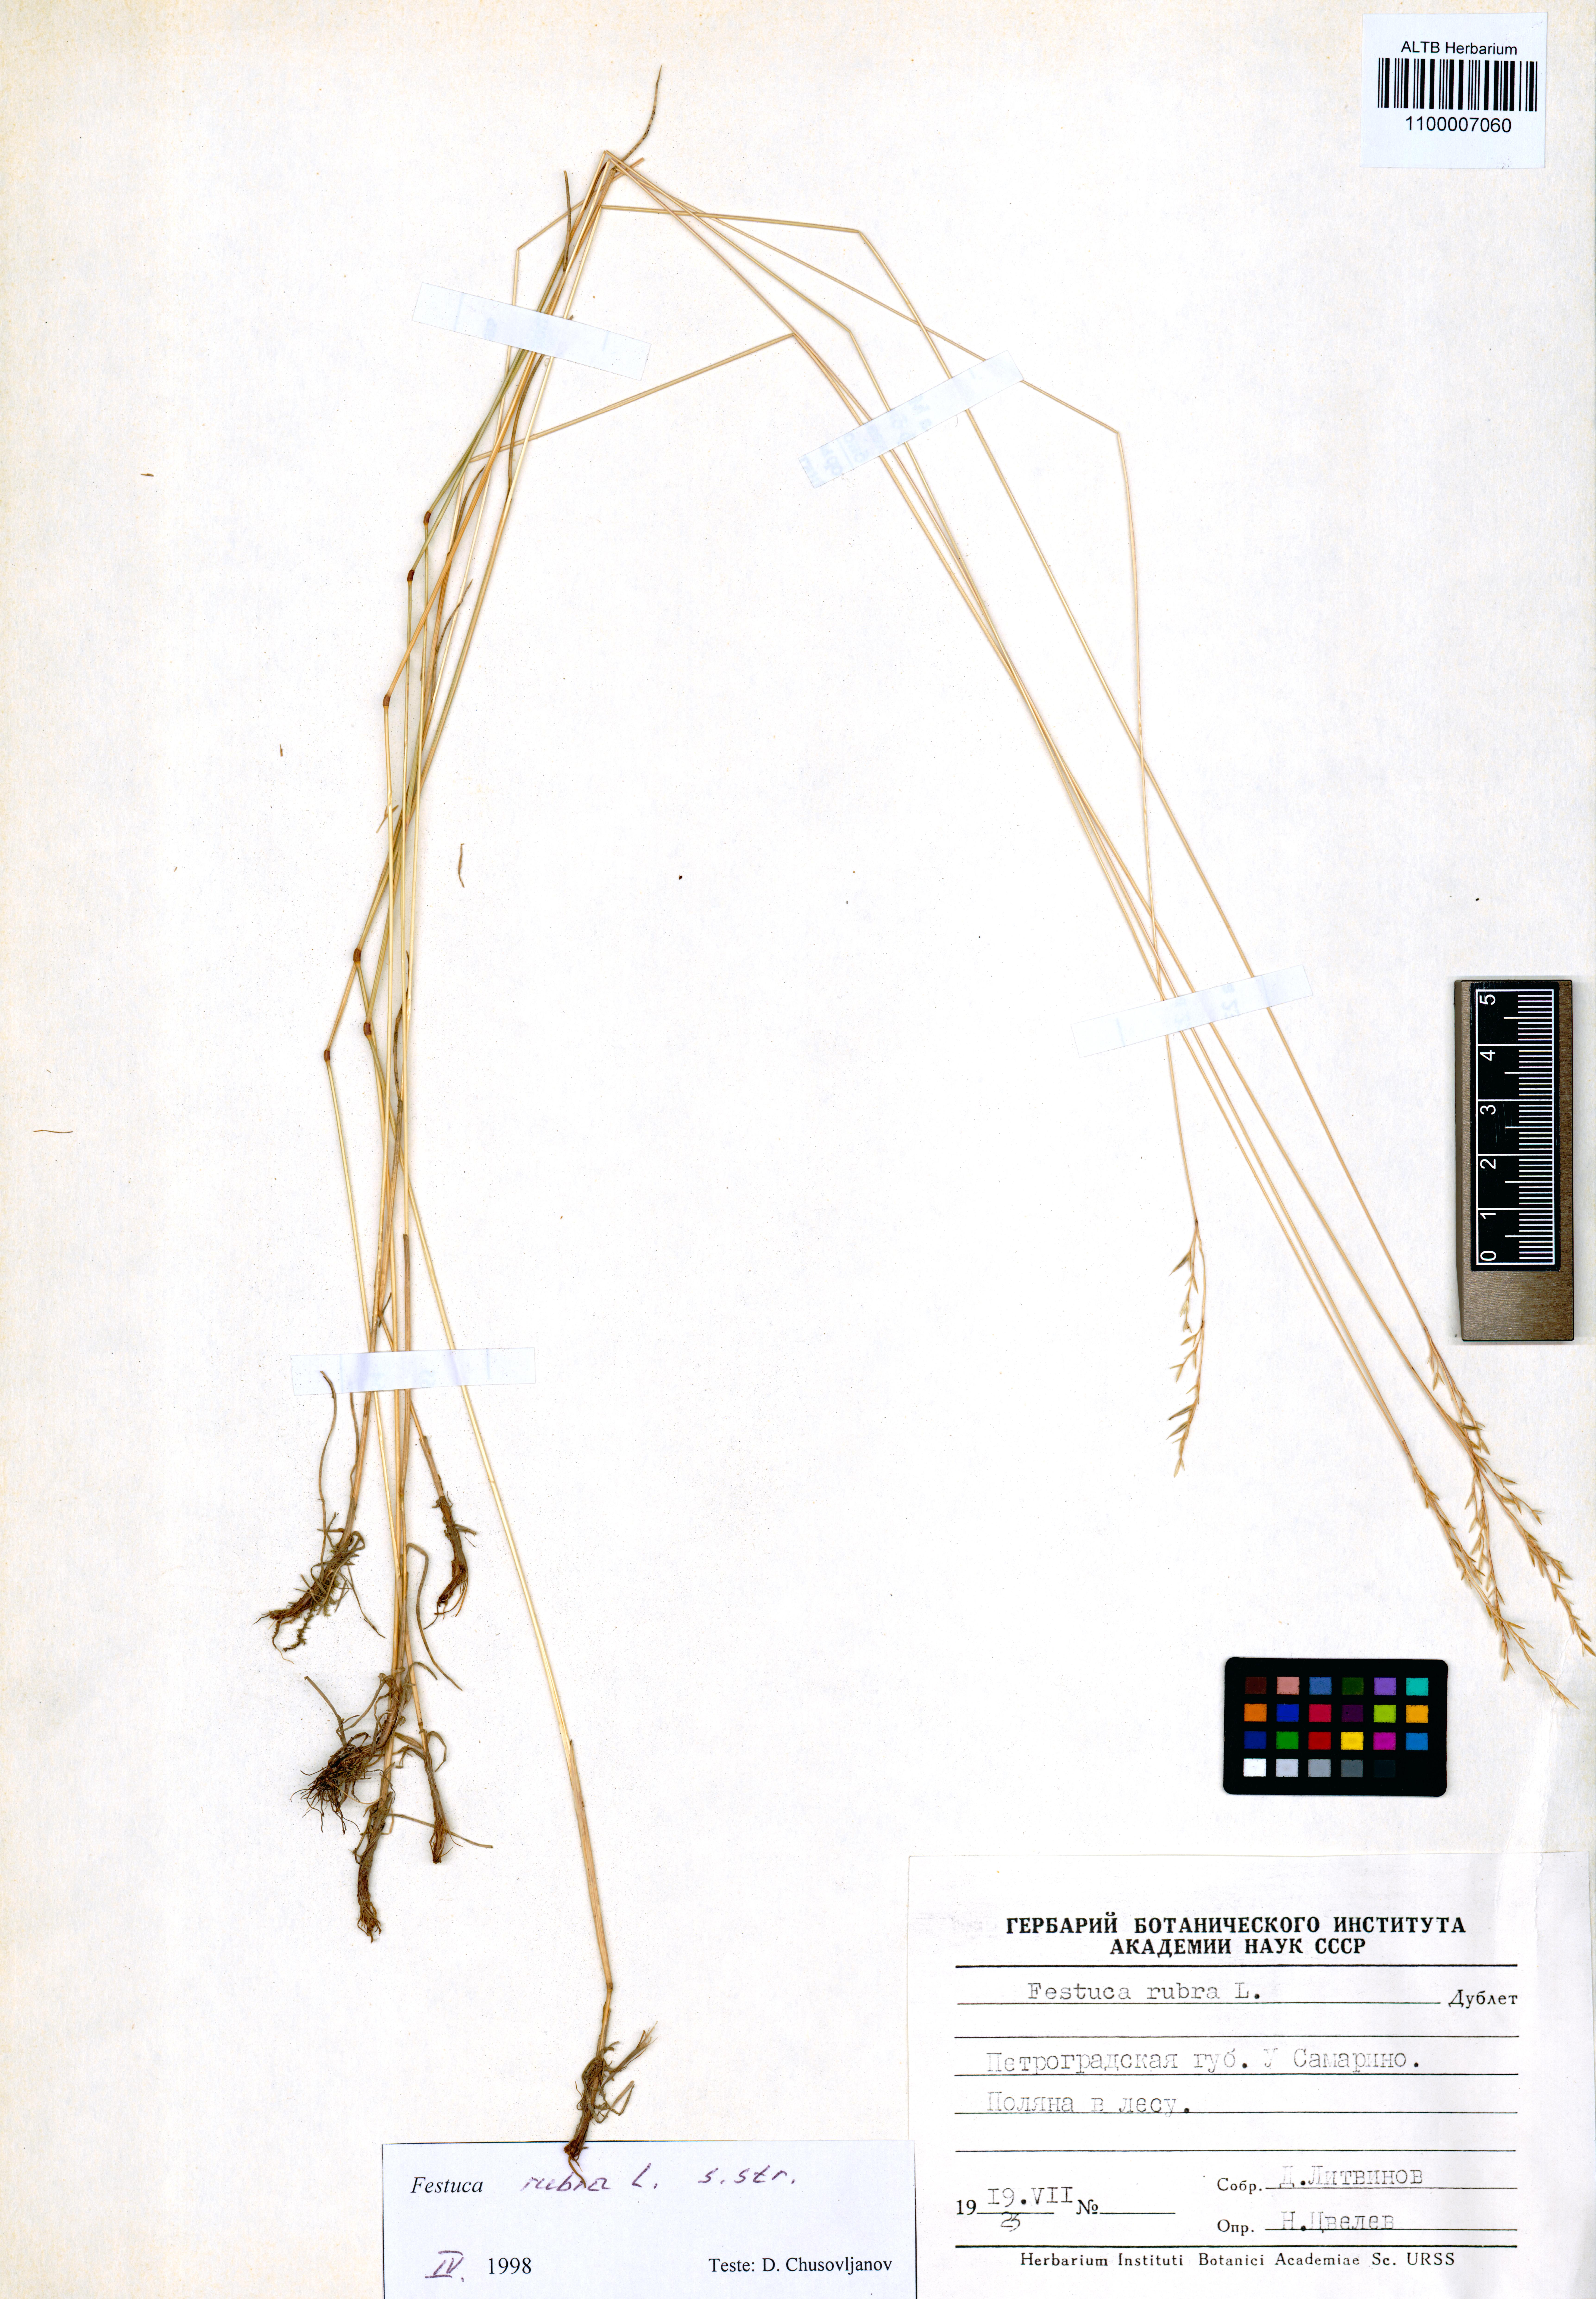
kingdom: Plantae
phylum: Tracheophyta
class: Liliopsida
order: Poales
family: Poaceae
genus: Festuca
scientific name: Festuca rubra
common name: Red fescue
